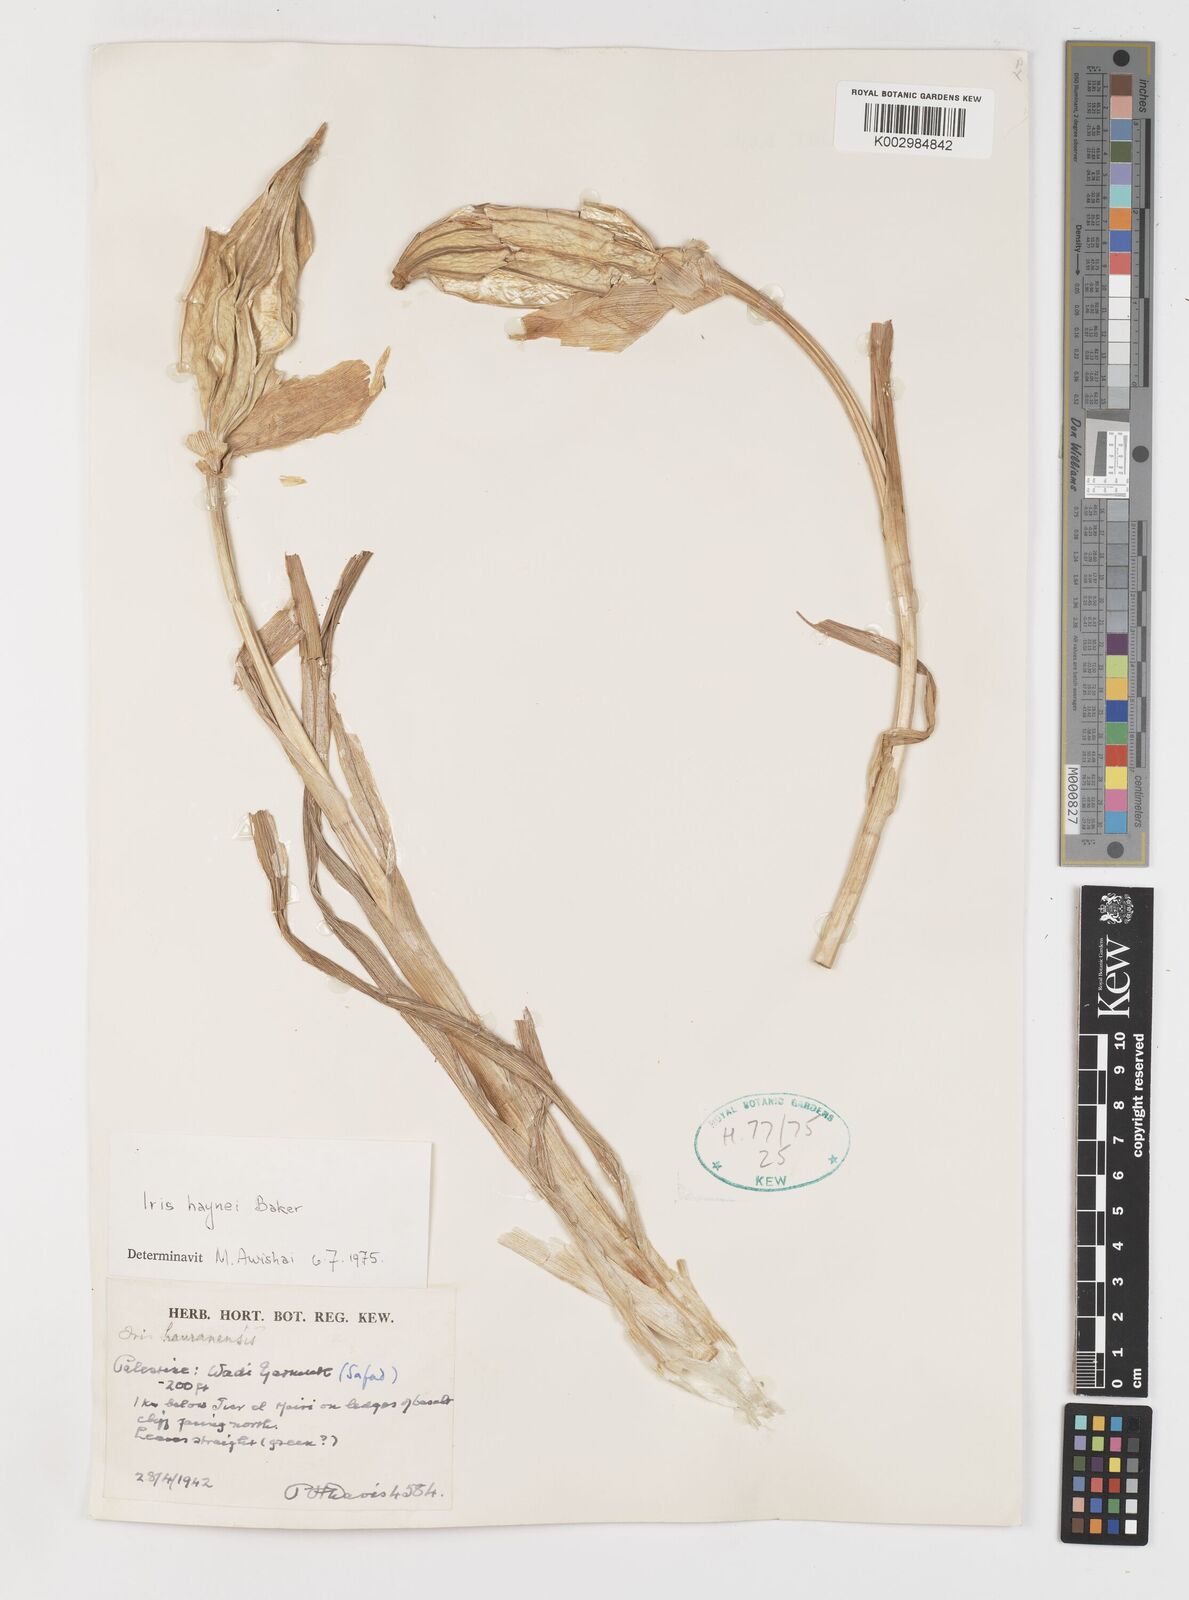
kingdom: Plantae
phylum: Tracheophyta
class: Liliopsida
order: Asparagales
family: Iridaceae
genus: Iris
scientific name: Iris atrofusca
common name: Asshafa iris
